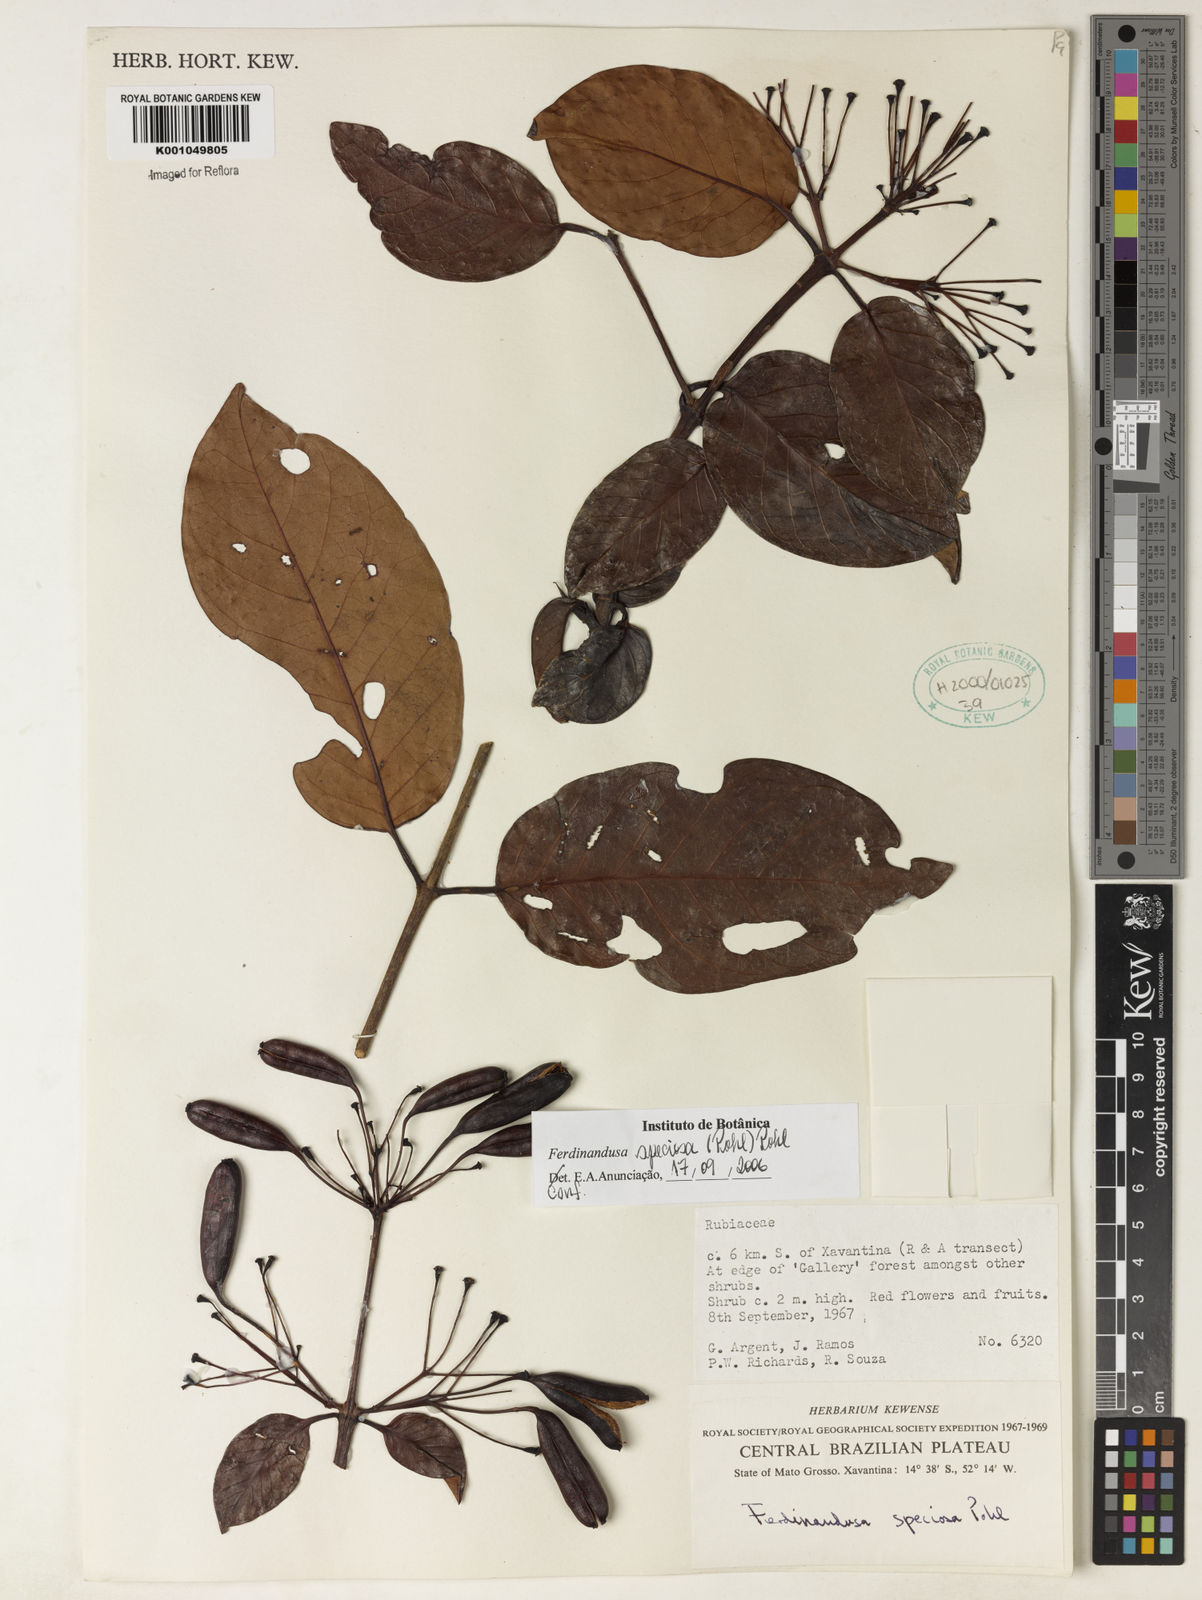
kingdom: Plantae
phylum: Tracheophyta
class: Magnoliopsida
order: Gentianales
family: Rubiaceae
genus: Ferdinandusa
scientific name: Ferdinandusa speciosa
